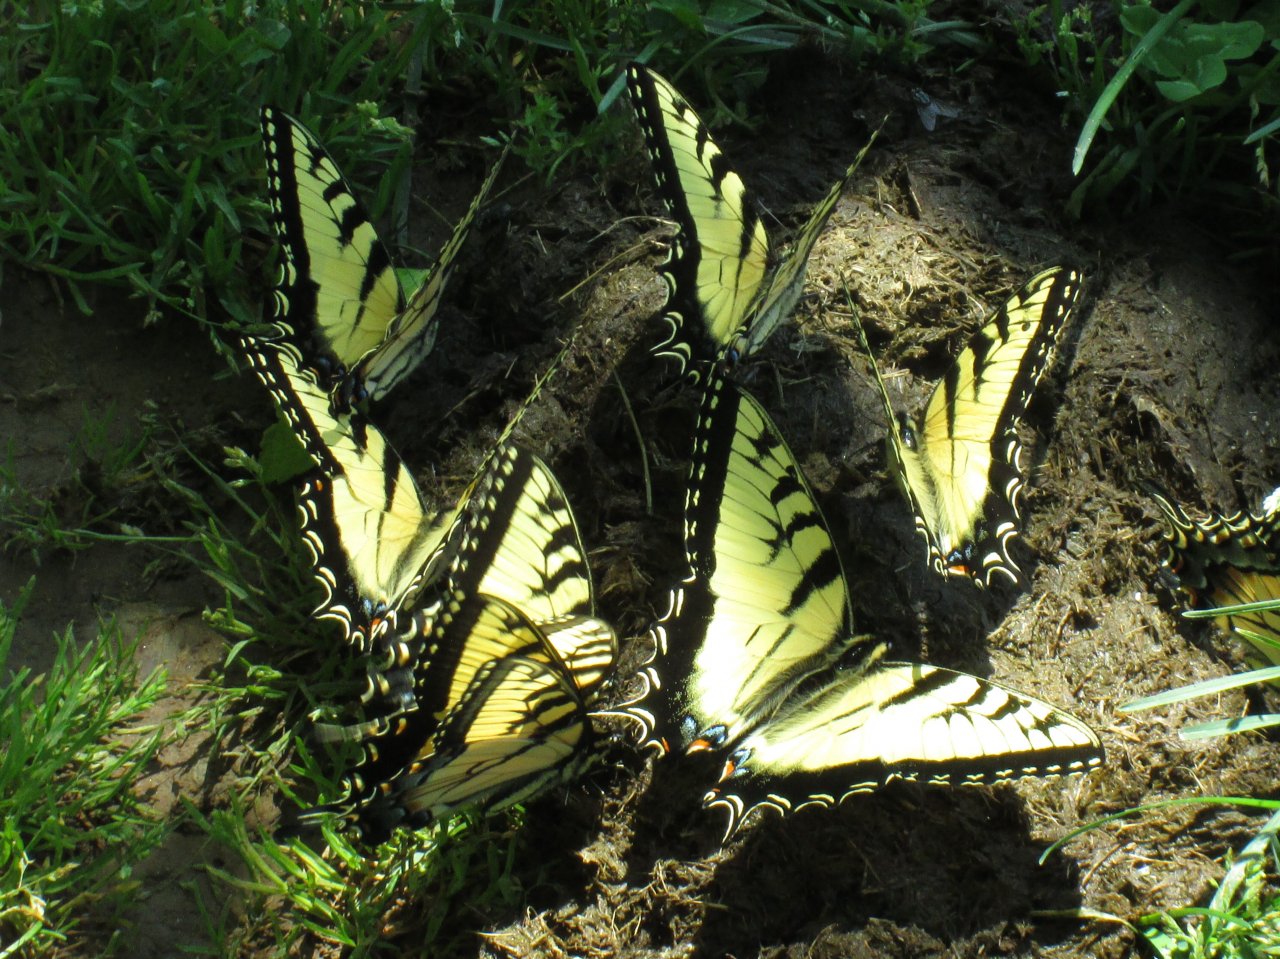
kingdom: Animalia
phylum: Arthropoda
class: Insecta
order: Lepidoptera
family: Papilionidae
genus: Pterourus
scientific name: Pterourus glaucus
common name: Eastern Tiger Swallowtail
